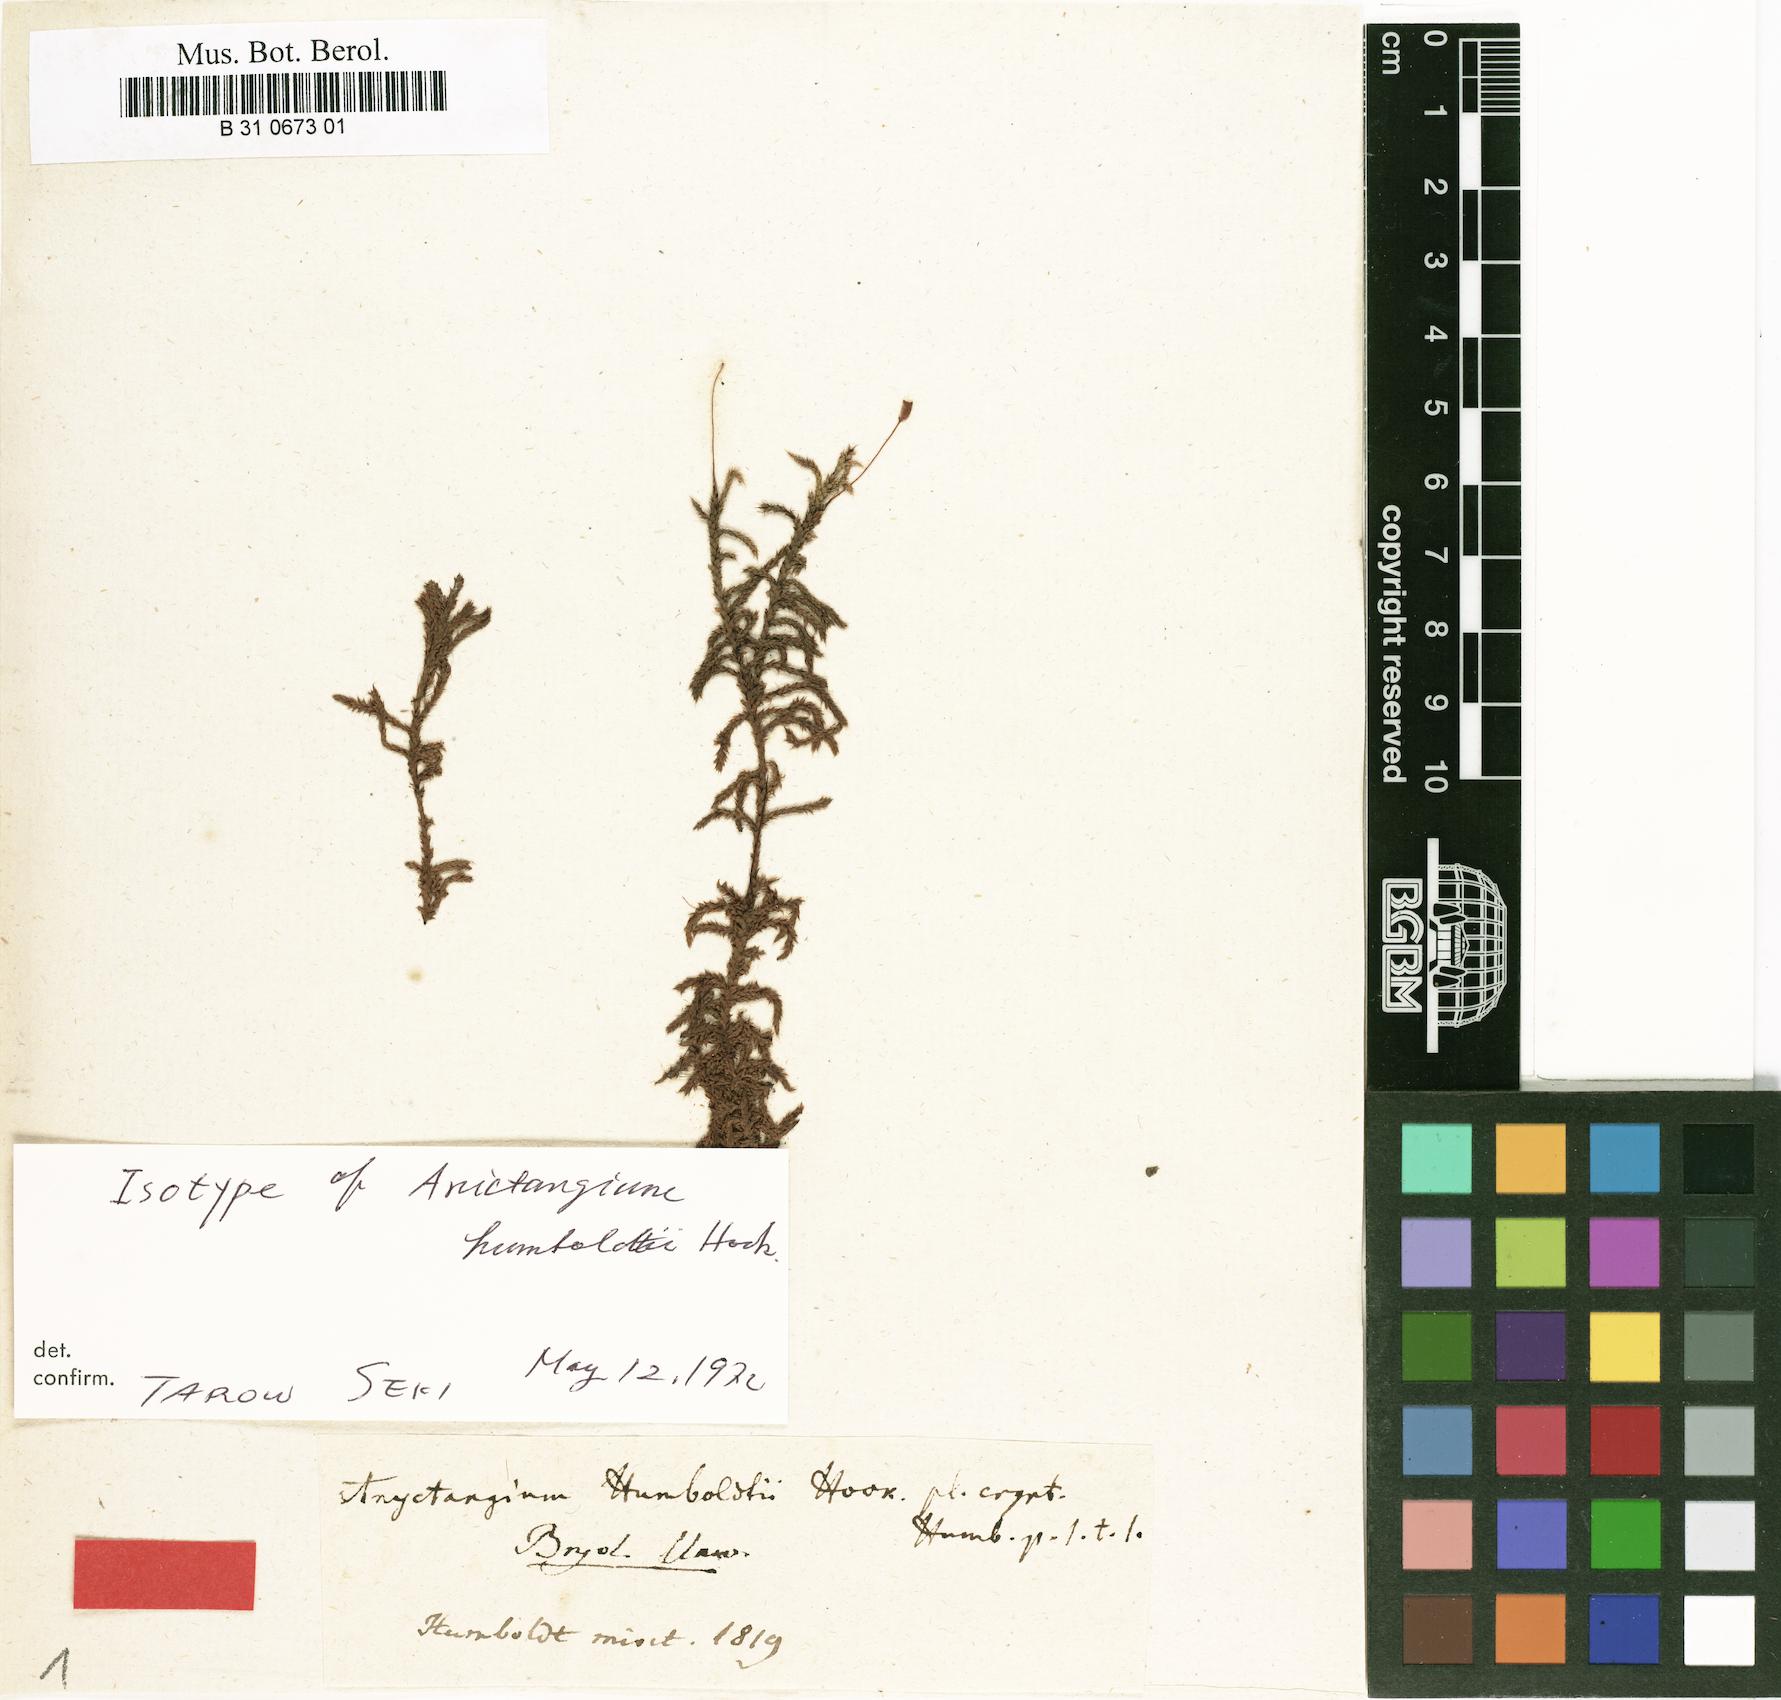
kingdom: Plantae
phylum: Bryophyta
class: Bryopsida
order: Hedwigiales
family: Hedwigiaceae
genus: Rhacocarpus
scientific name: Rhacocarpus purpurascens
